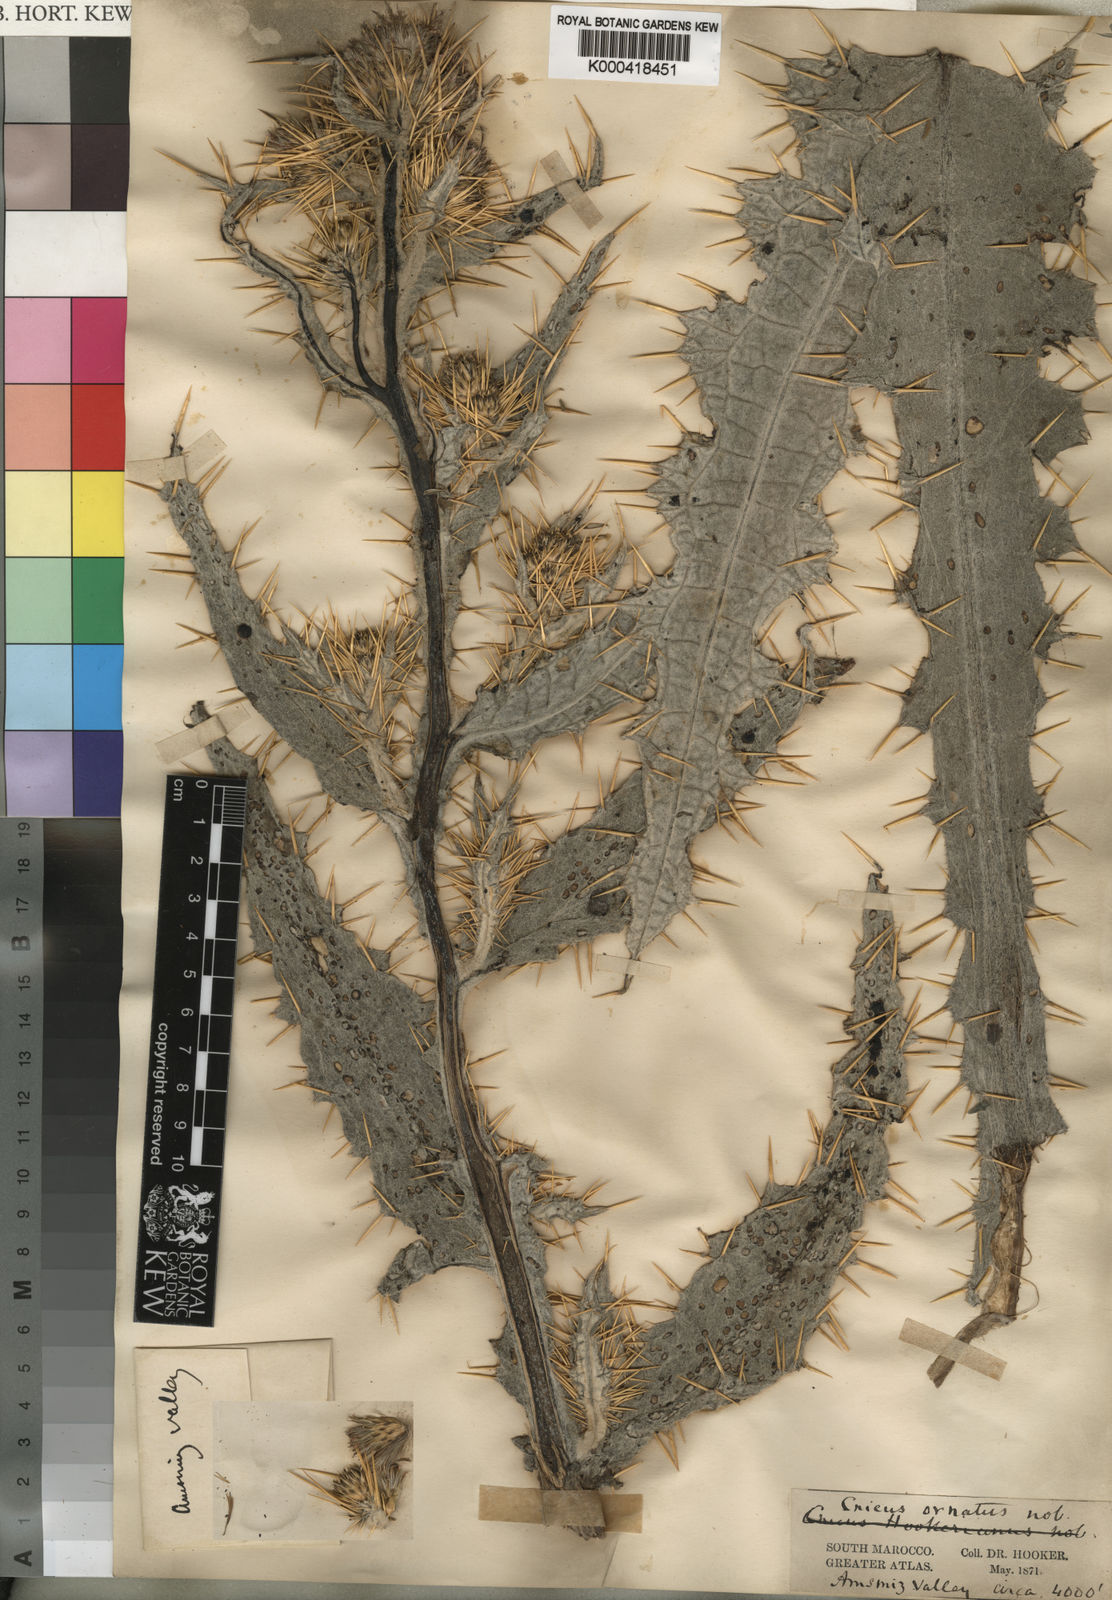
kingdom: Plantae
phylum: Tracheophyta
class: Magnoliopsida
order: Asterales
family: Asteraceae
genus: Cirsium
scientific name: Cirsium
